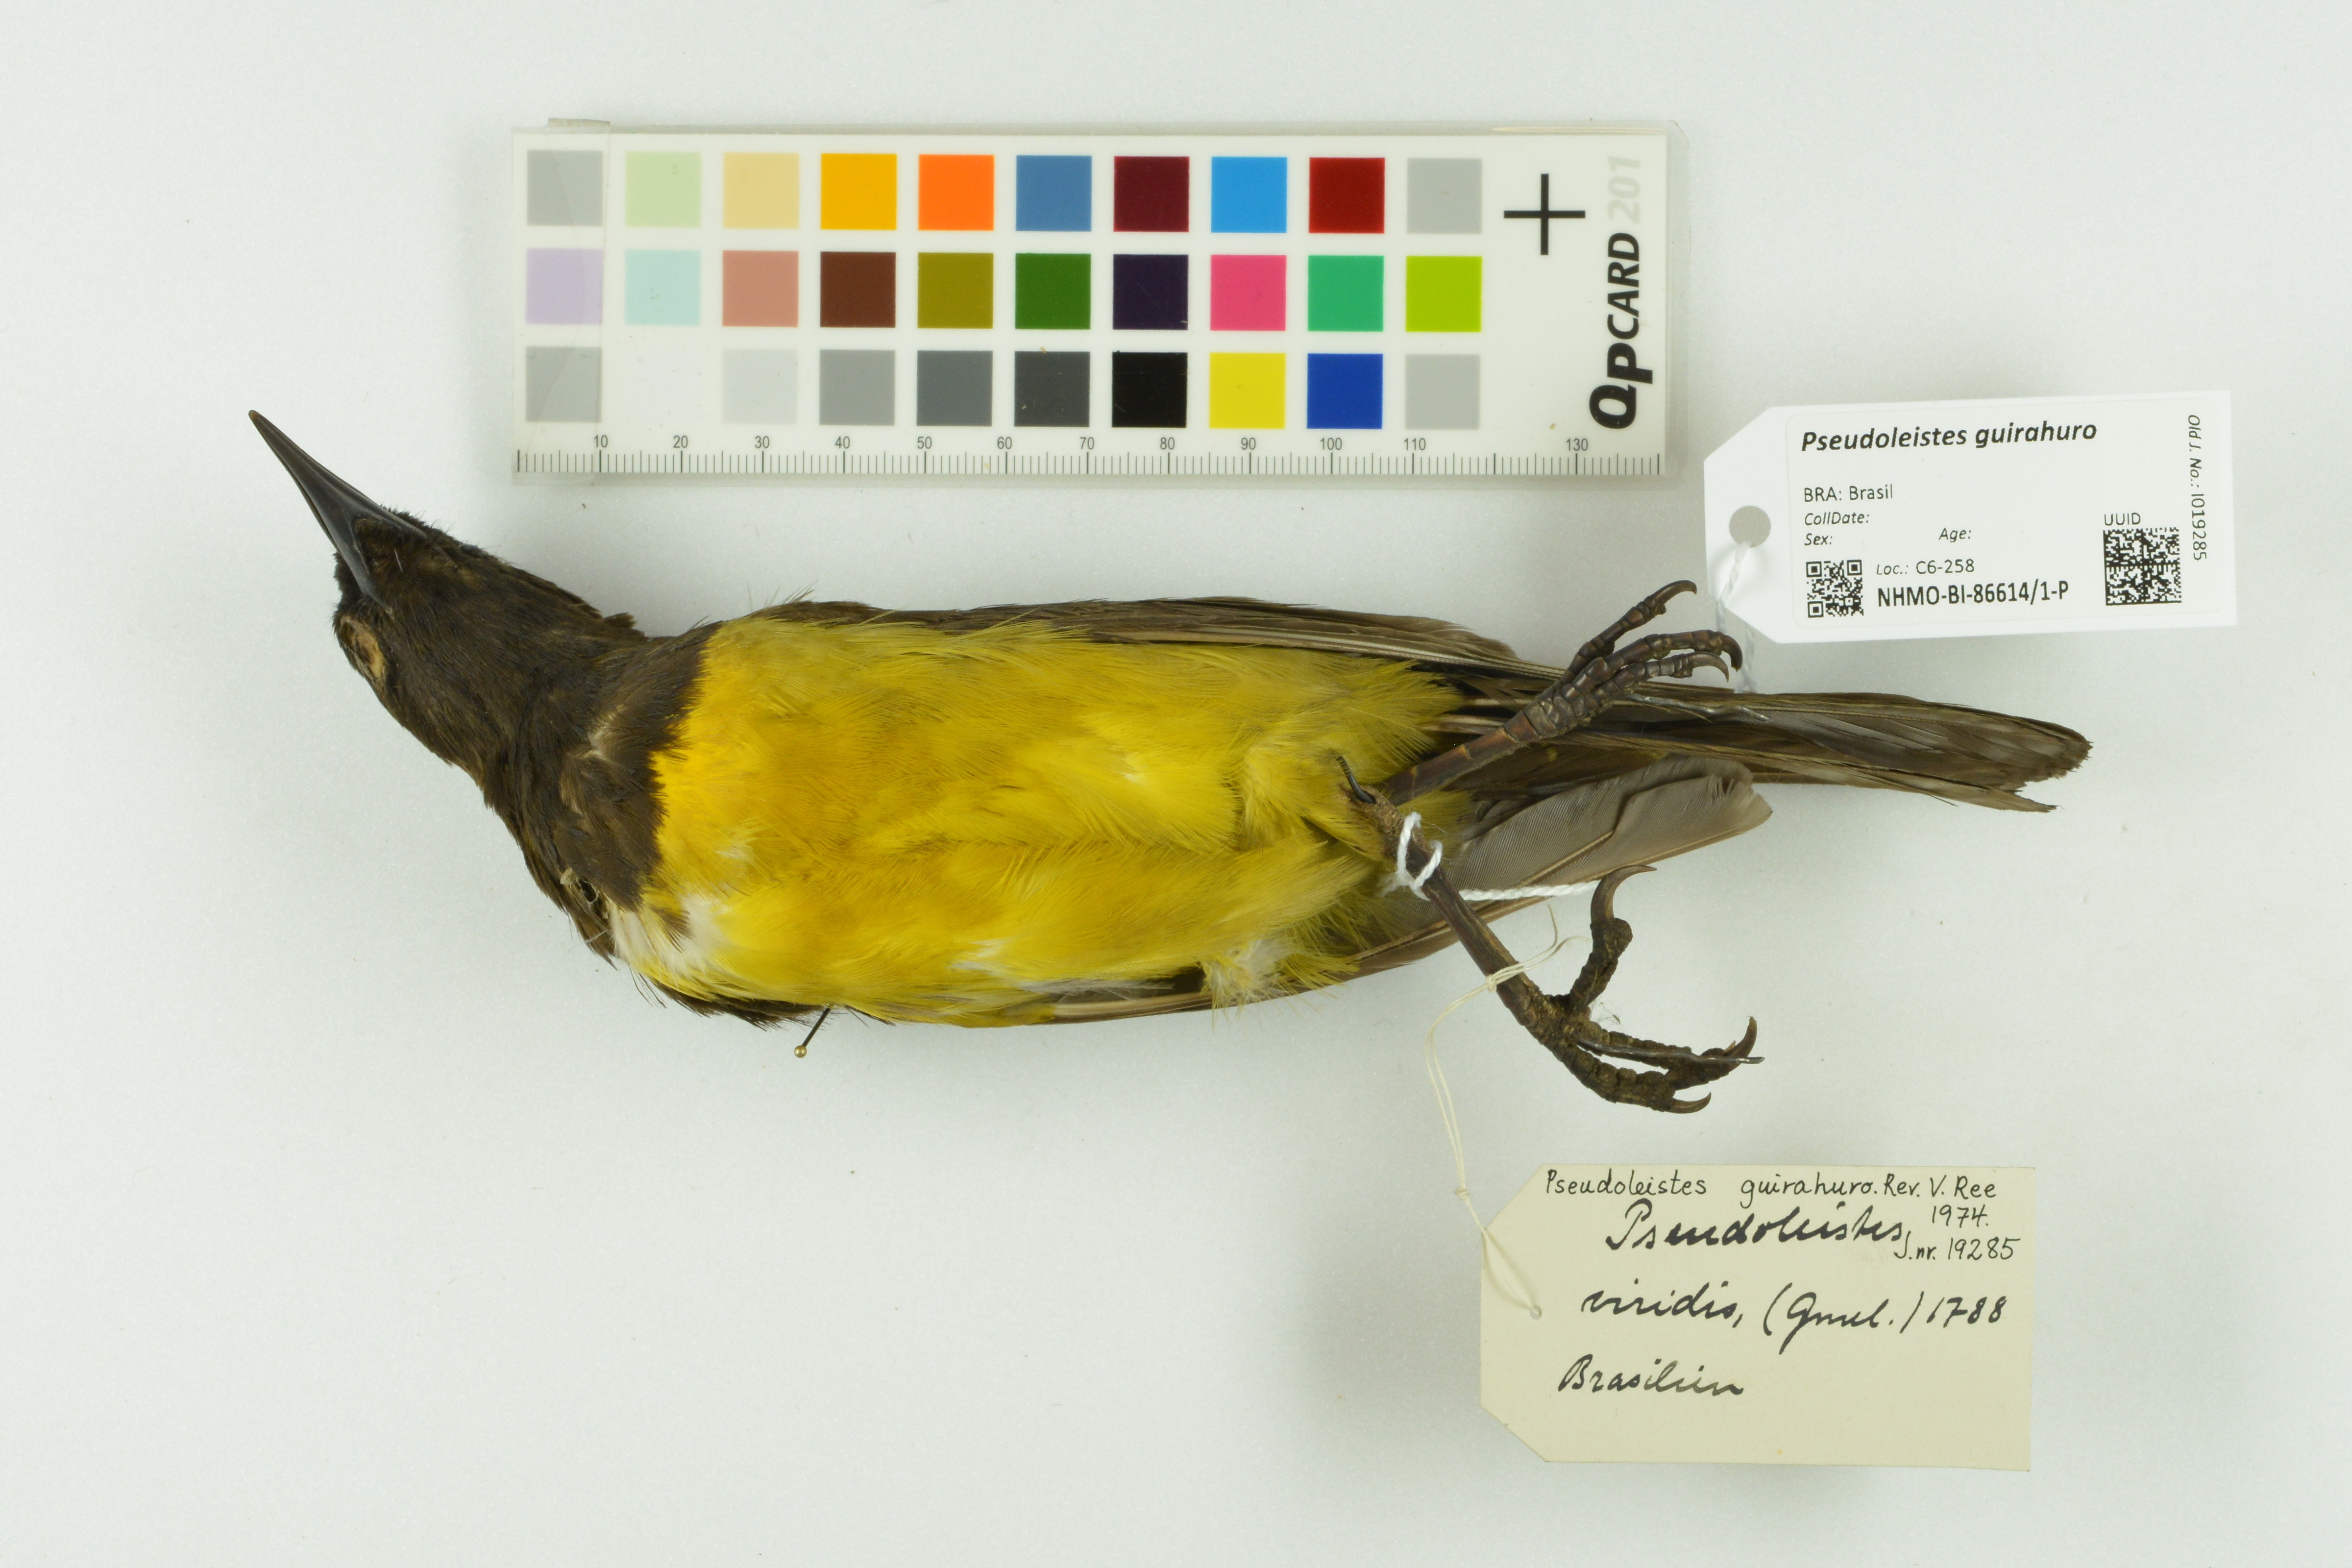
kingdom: Animalia
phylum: Chordata
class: Aves
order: Passeriformes
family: Icteridae
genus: Pseudoleistes
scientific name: Pseudoleistes guirahuro
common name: Yellow-rumped marshbird
